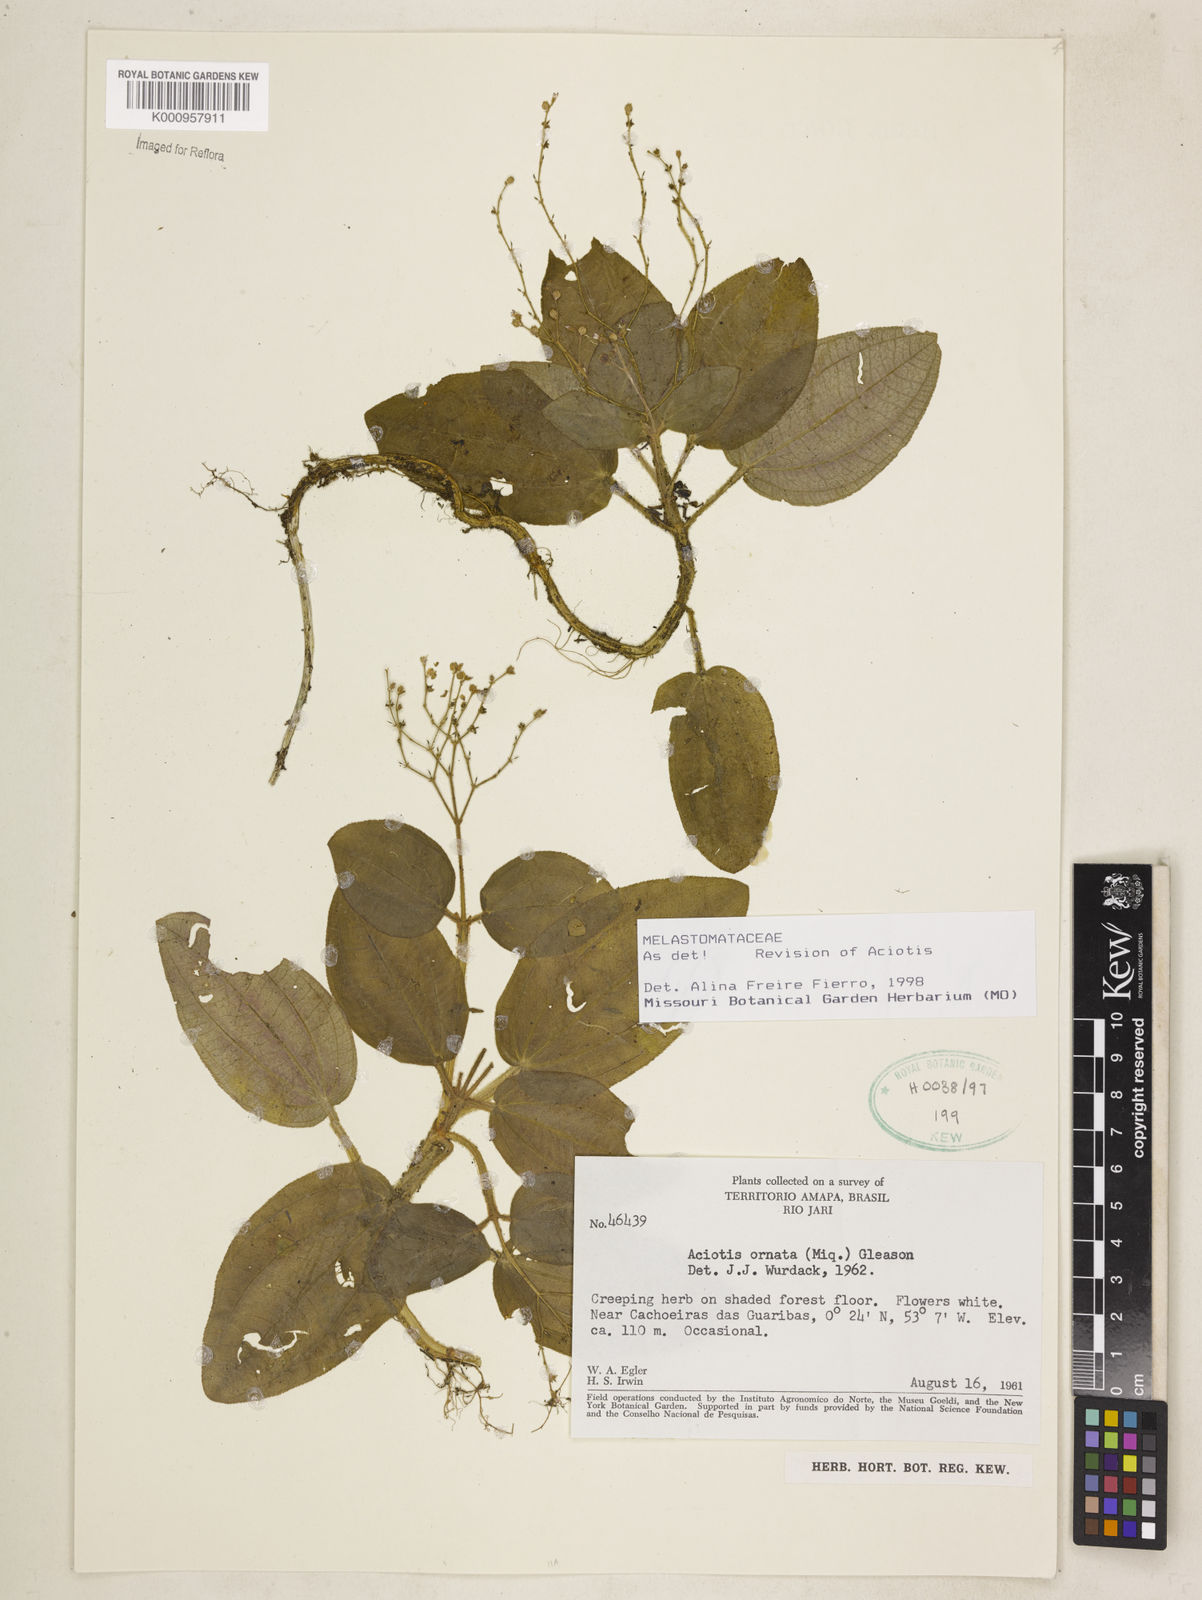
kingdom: Plantae
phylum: Tracheophyta
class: Magnoliopsida
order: Myrtales
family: Melastomataceae
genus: Aciotis
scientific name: Aciotis ornata
